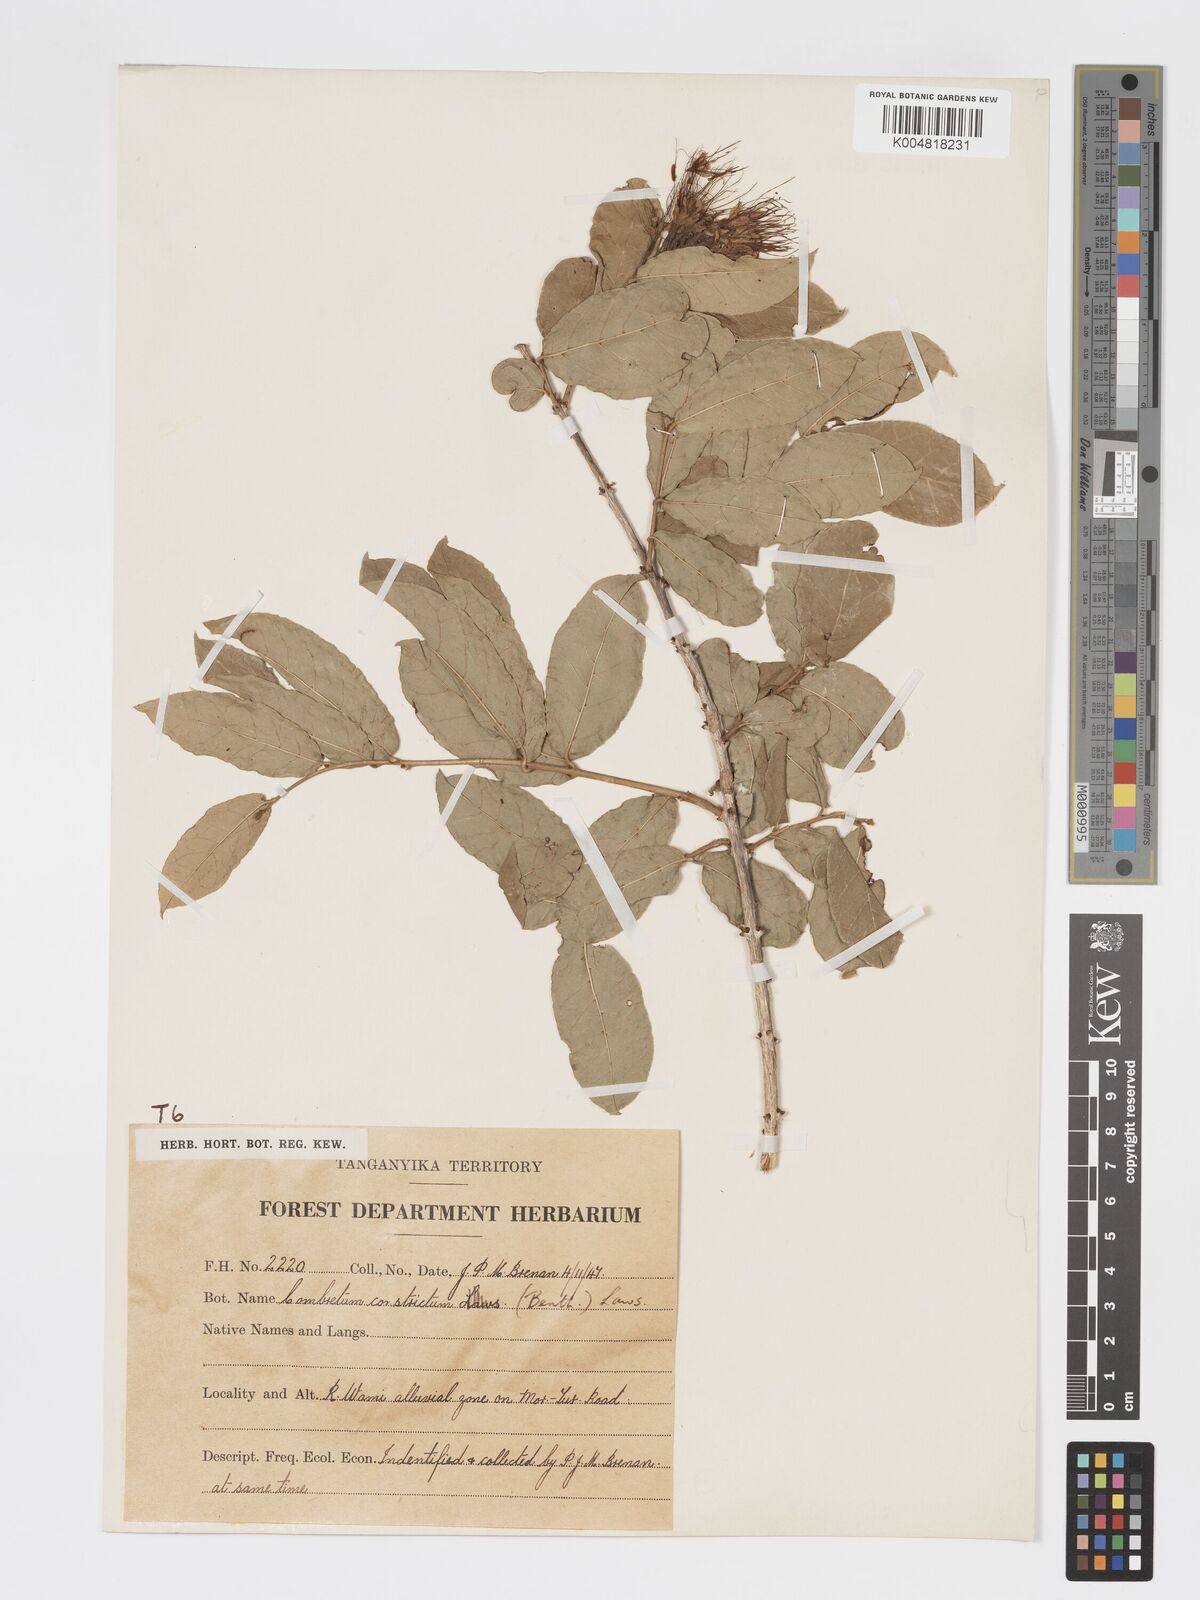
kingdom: Plantae
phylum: Tracheophyta
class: Magnoliopsida
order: Myrtales
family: Combretaceae
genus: Combretum
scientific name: Combretum constrictum
